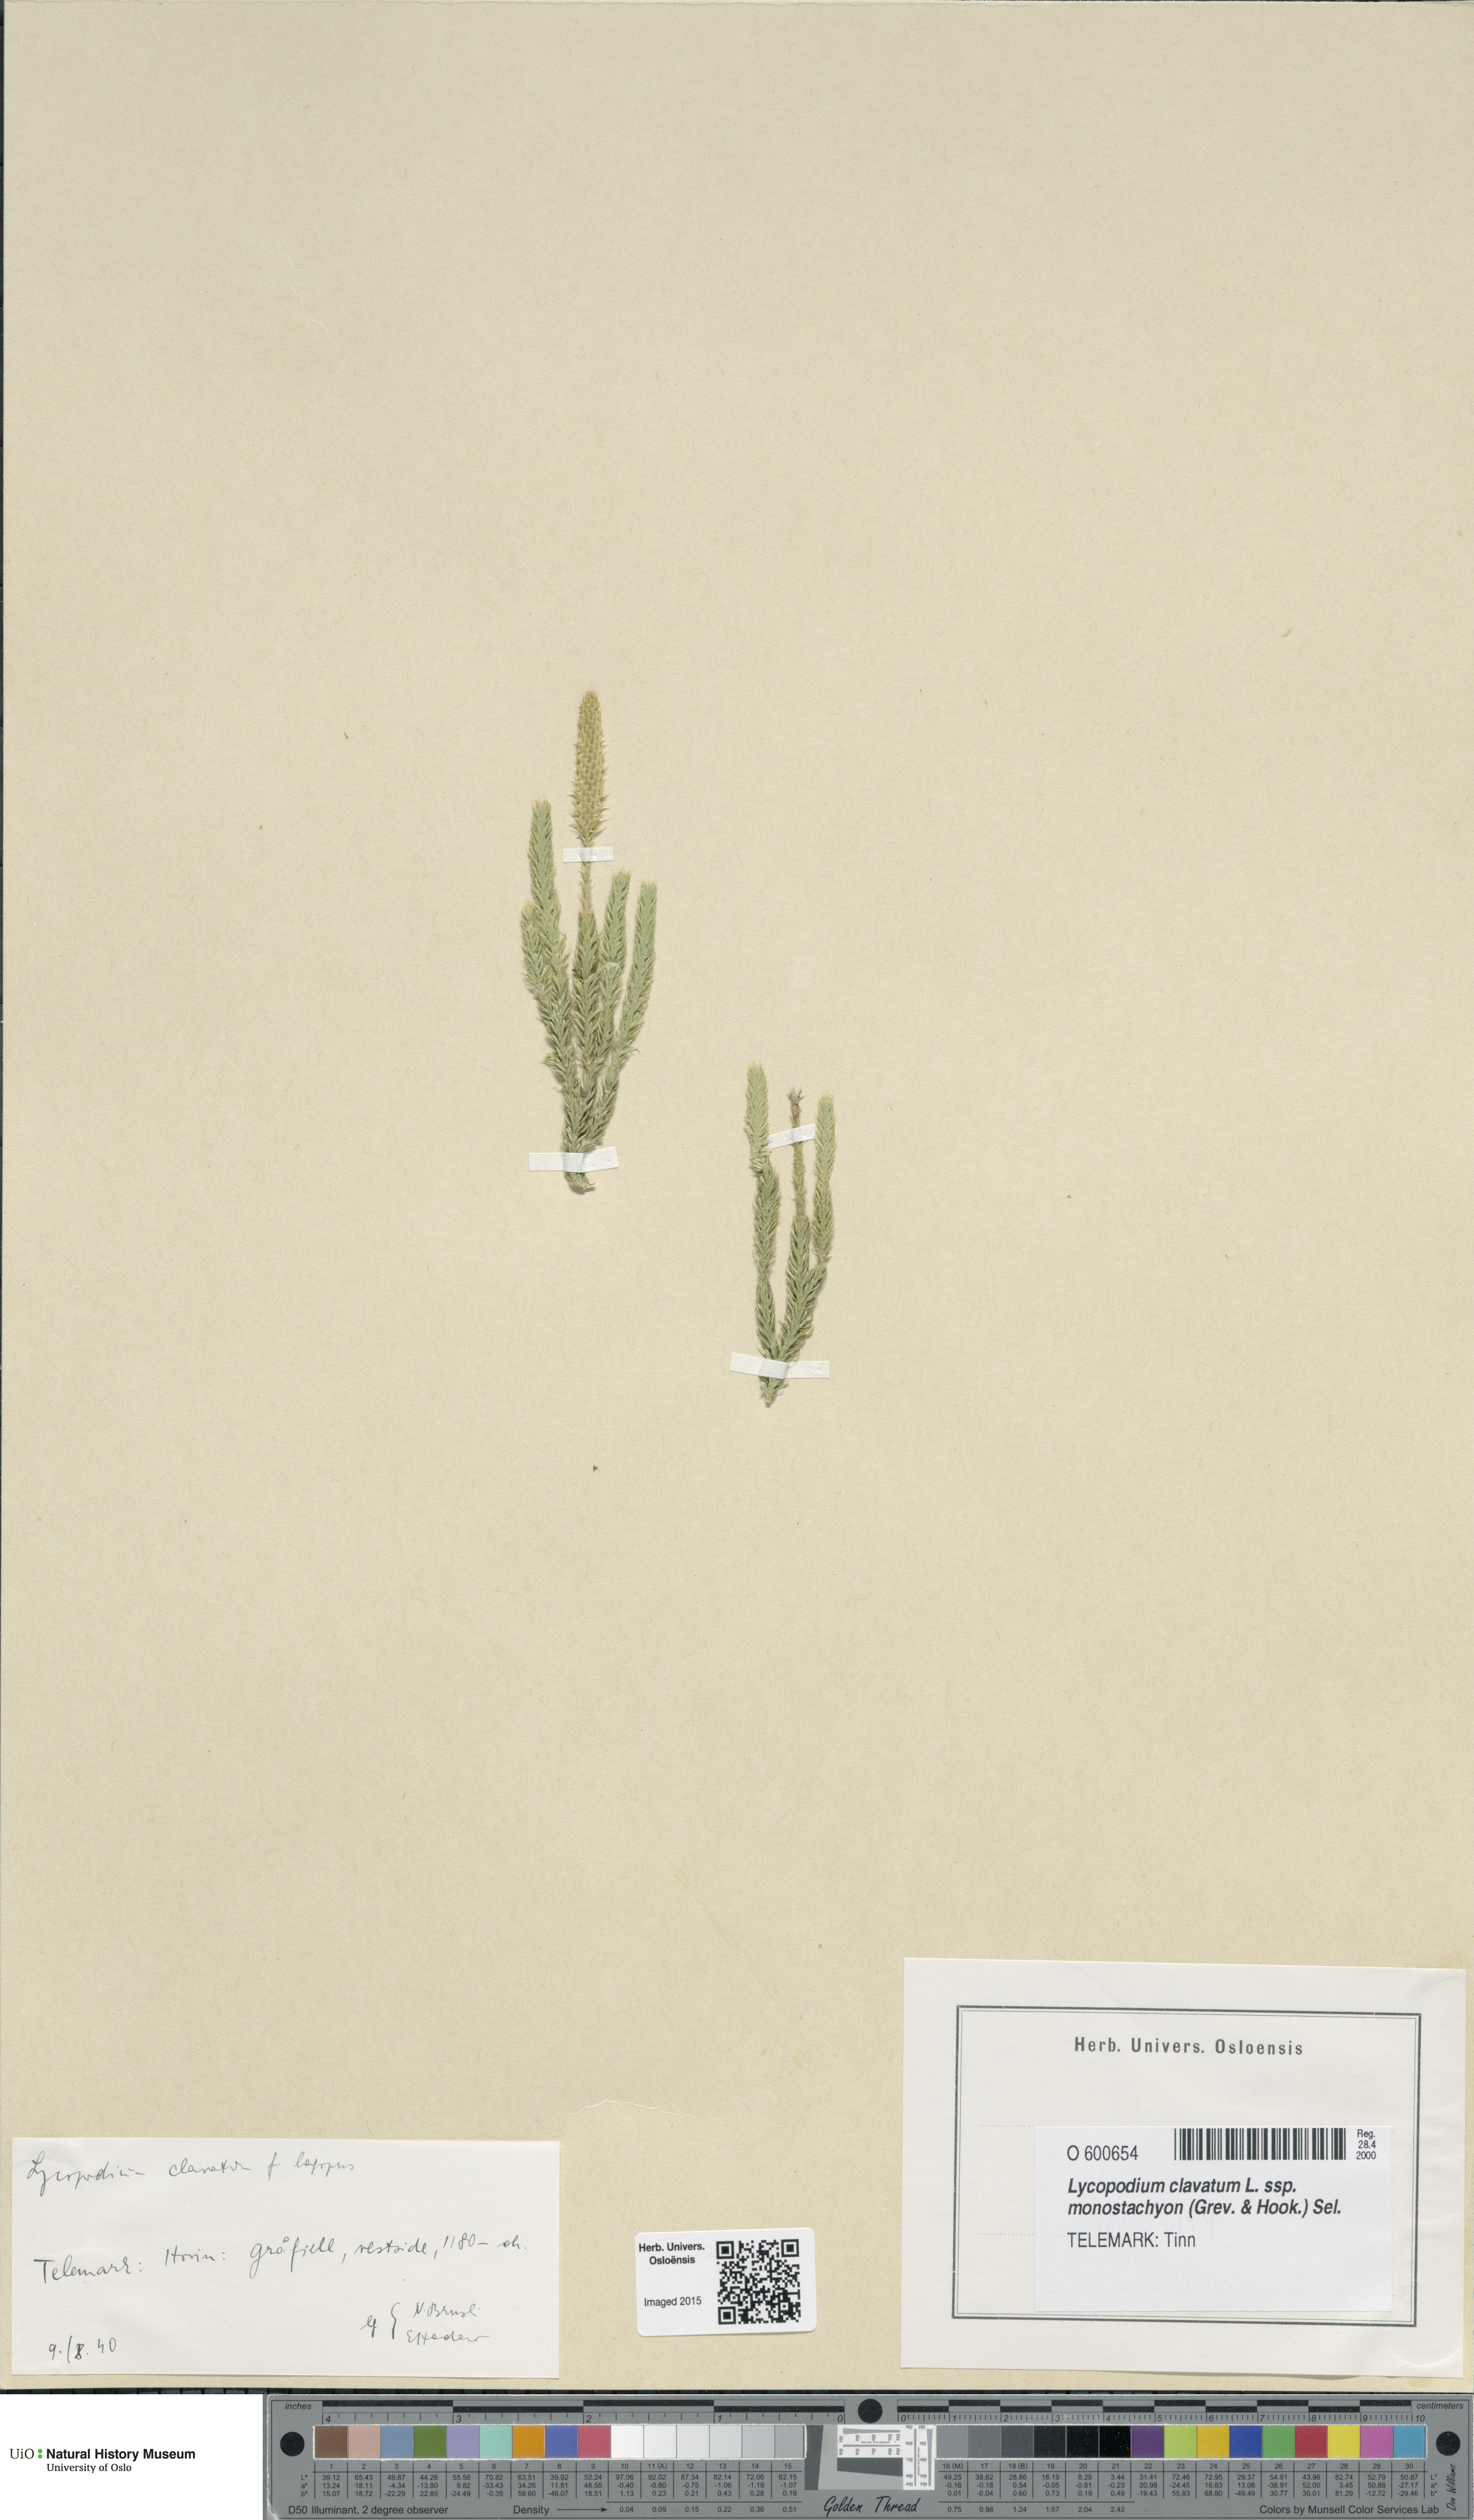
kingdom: Plantae
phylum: Tracheophyta
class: Lycopodiopsida
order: Lycopodiales
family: Lycopodiaceae
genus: Lycopodium
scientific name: Lycopodium lagopus
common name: One-cone clubmoss
